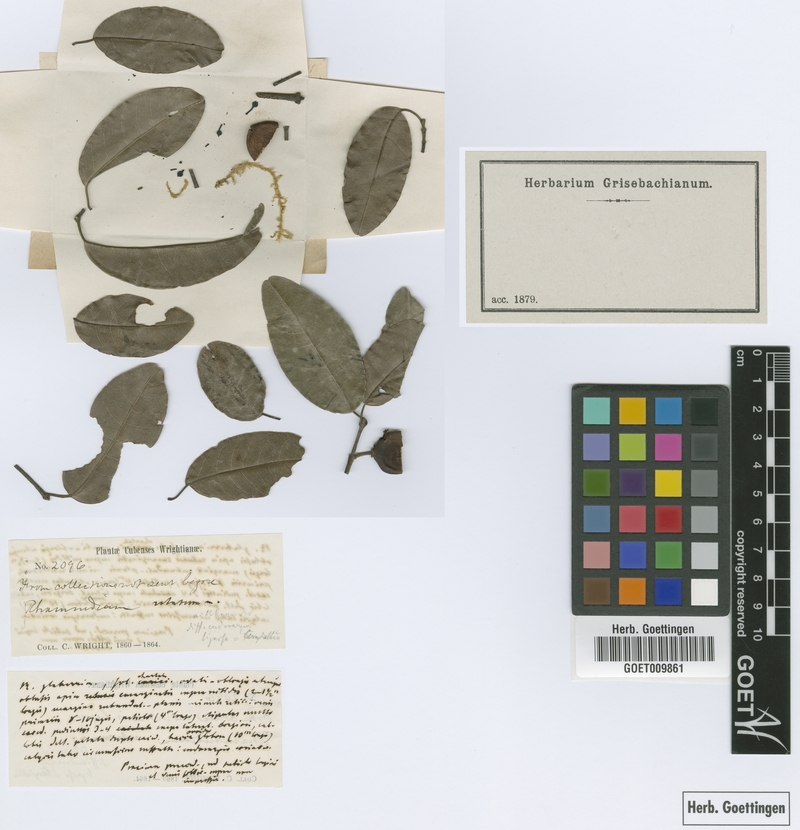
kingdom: Plantae
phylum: Tracheophyta
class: Magnoliopsida
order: Rosales
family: Rhamnaceae
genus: Reynosia
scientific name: Reynosia wrightii
